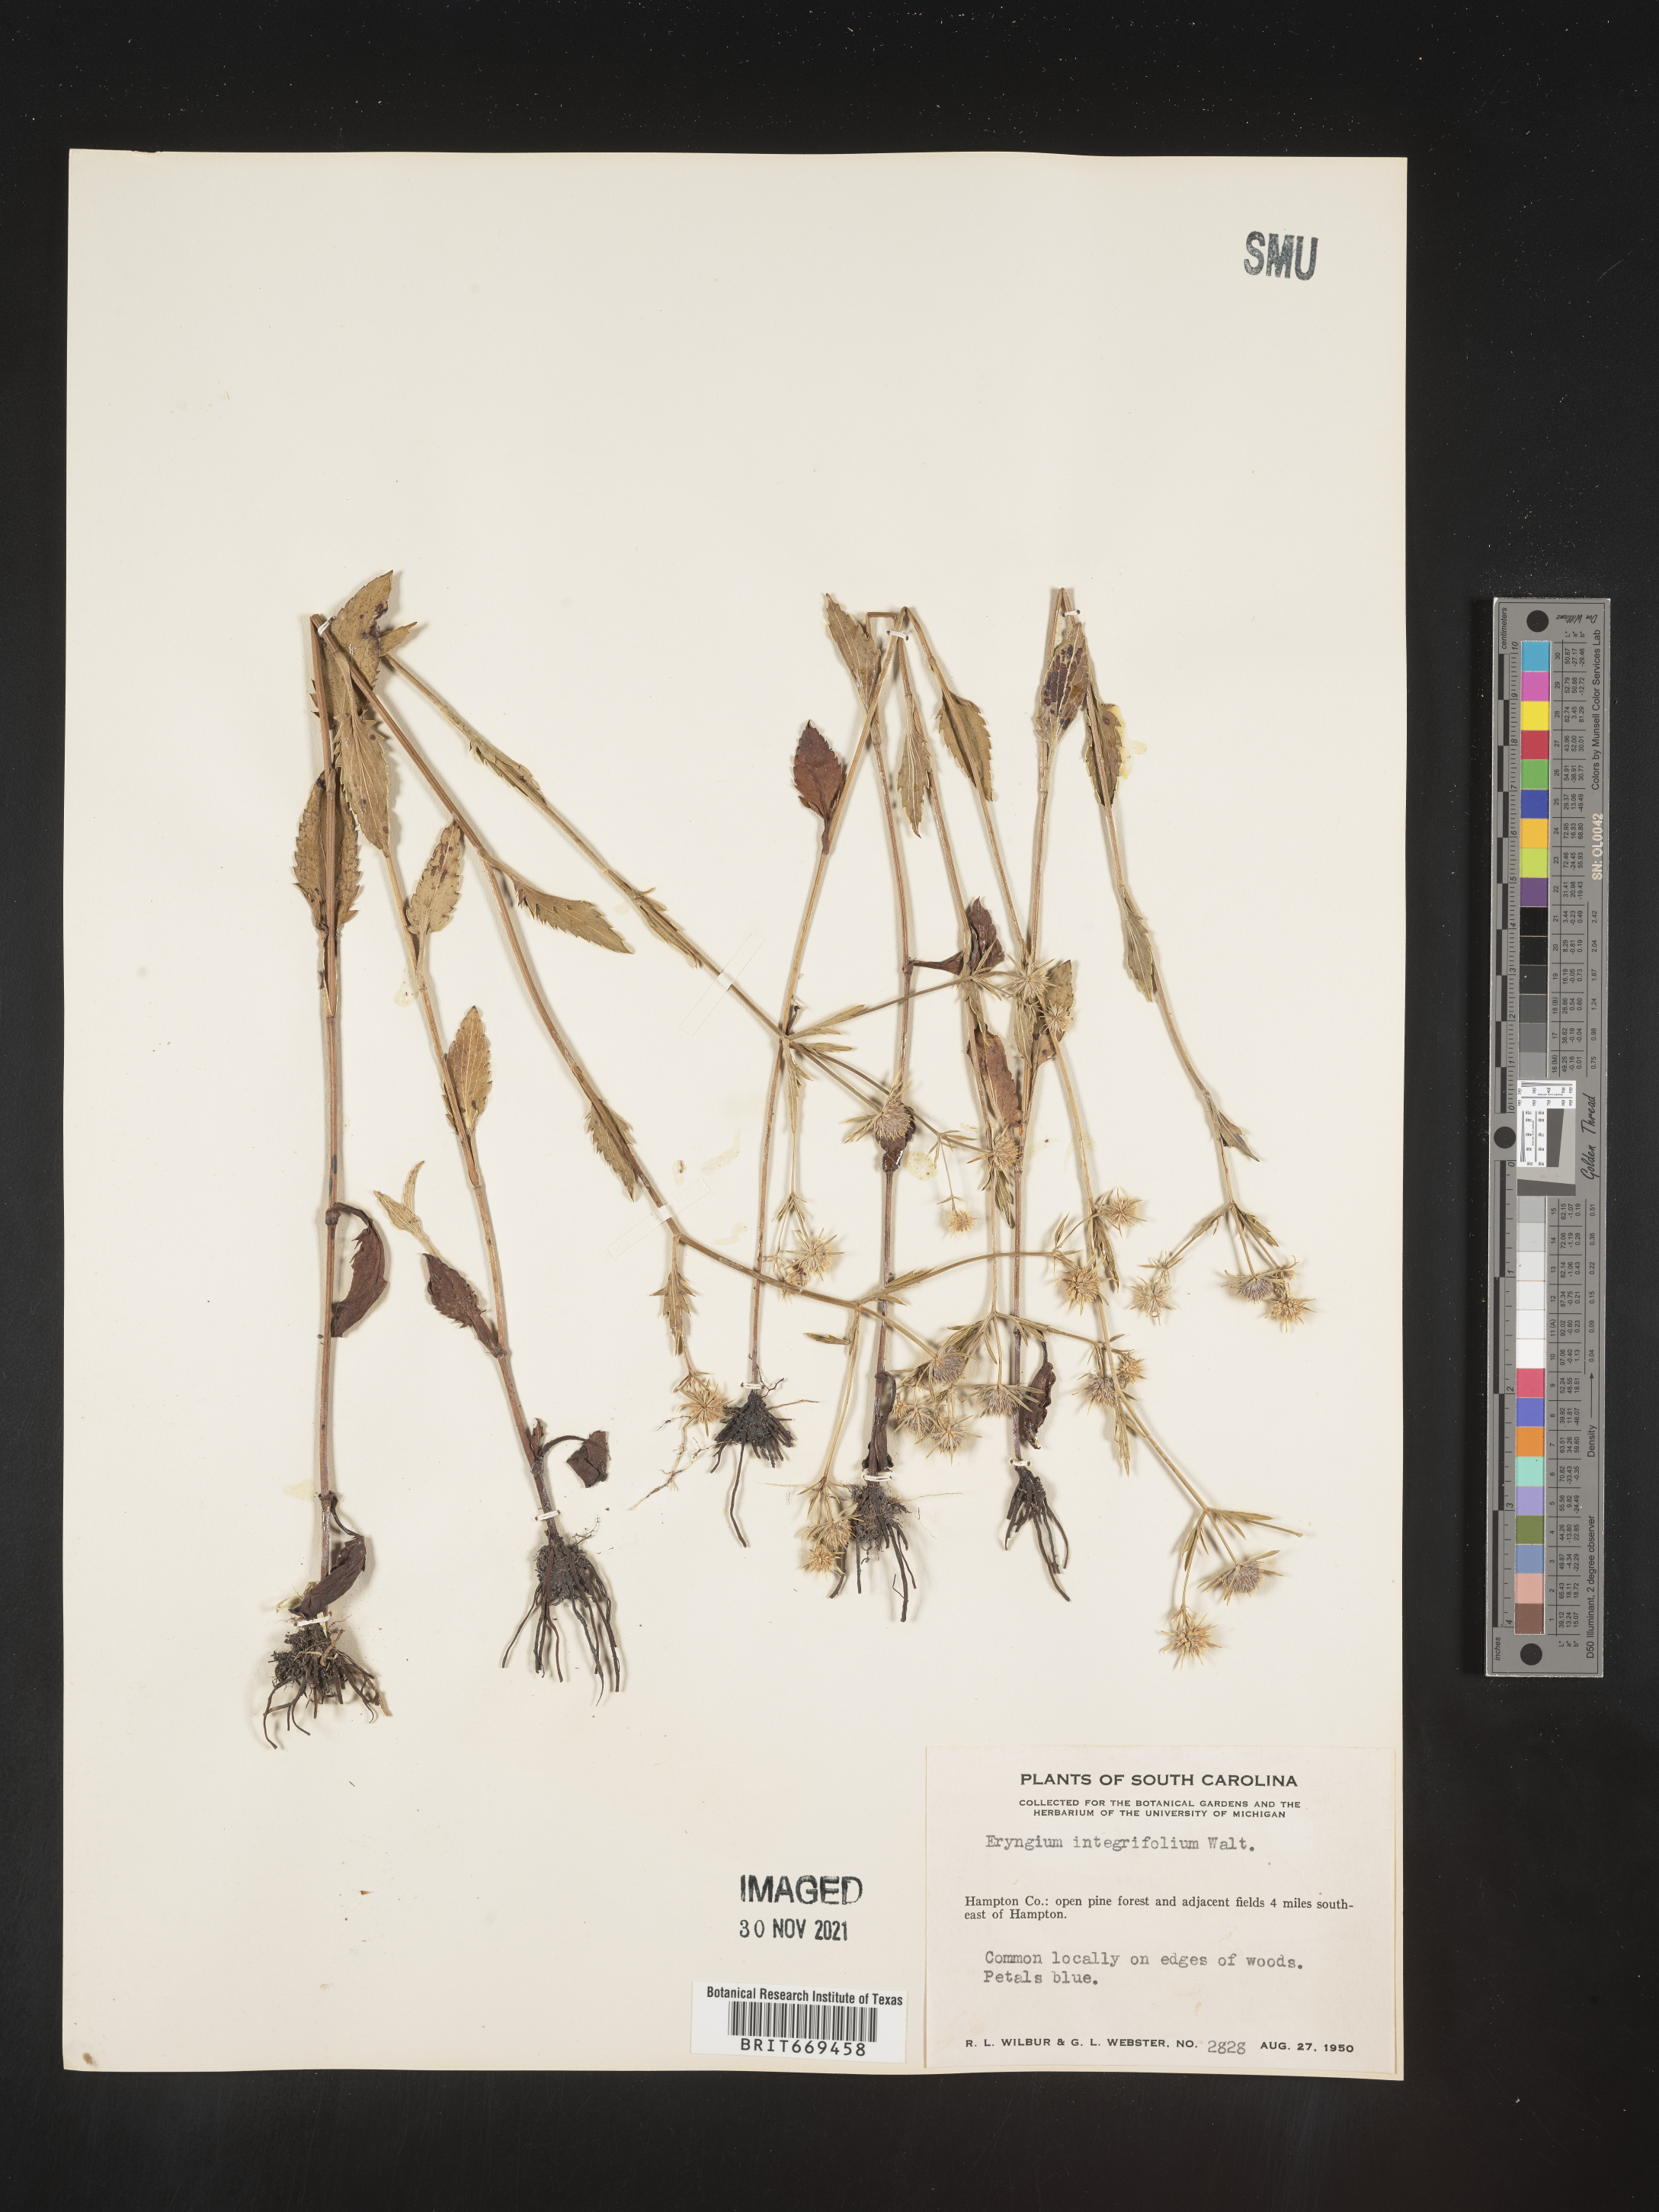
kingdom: Plantae
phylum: Tracheophyta
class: Magnoliopsida
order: Apiales
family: Apiaceae
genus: Eryngium
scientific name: Eryngium integrifolium
